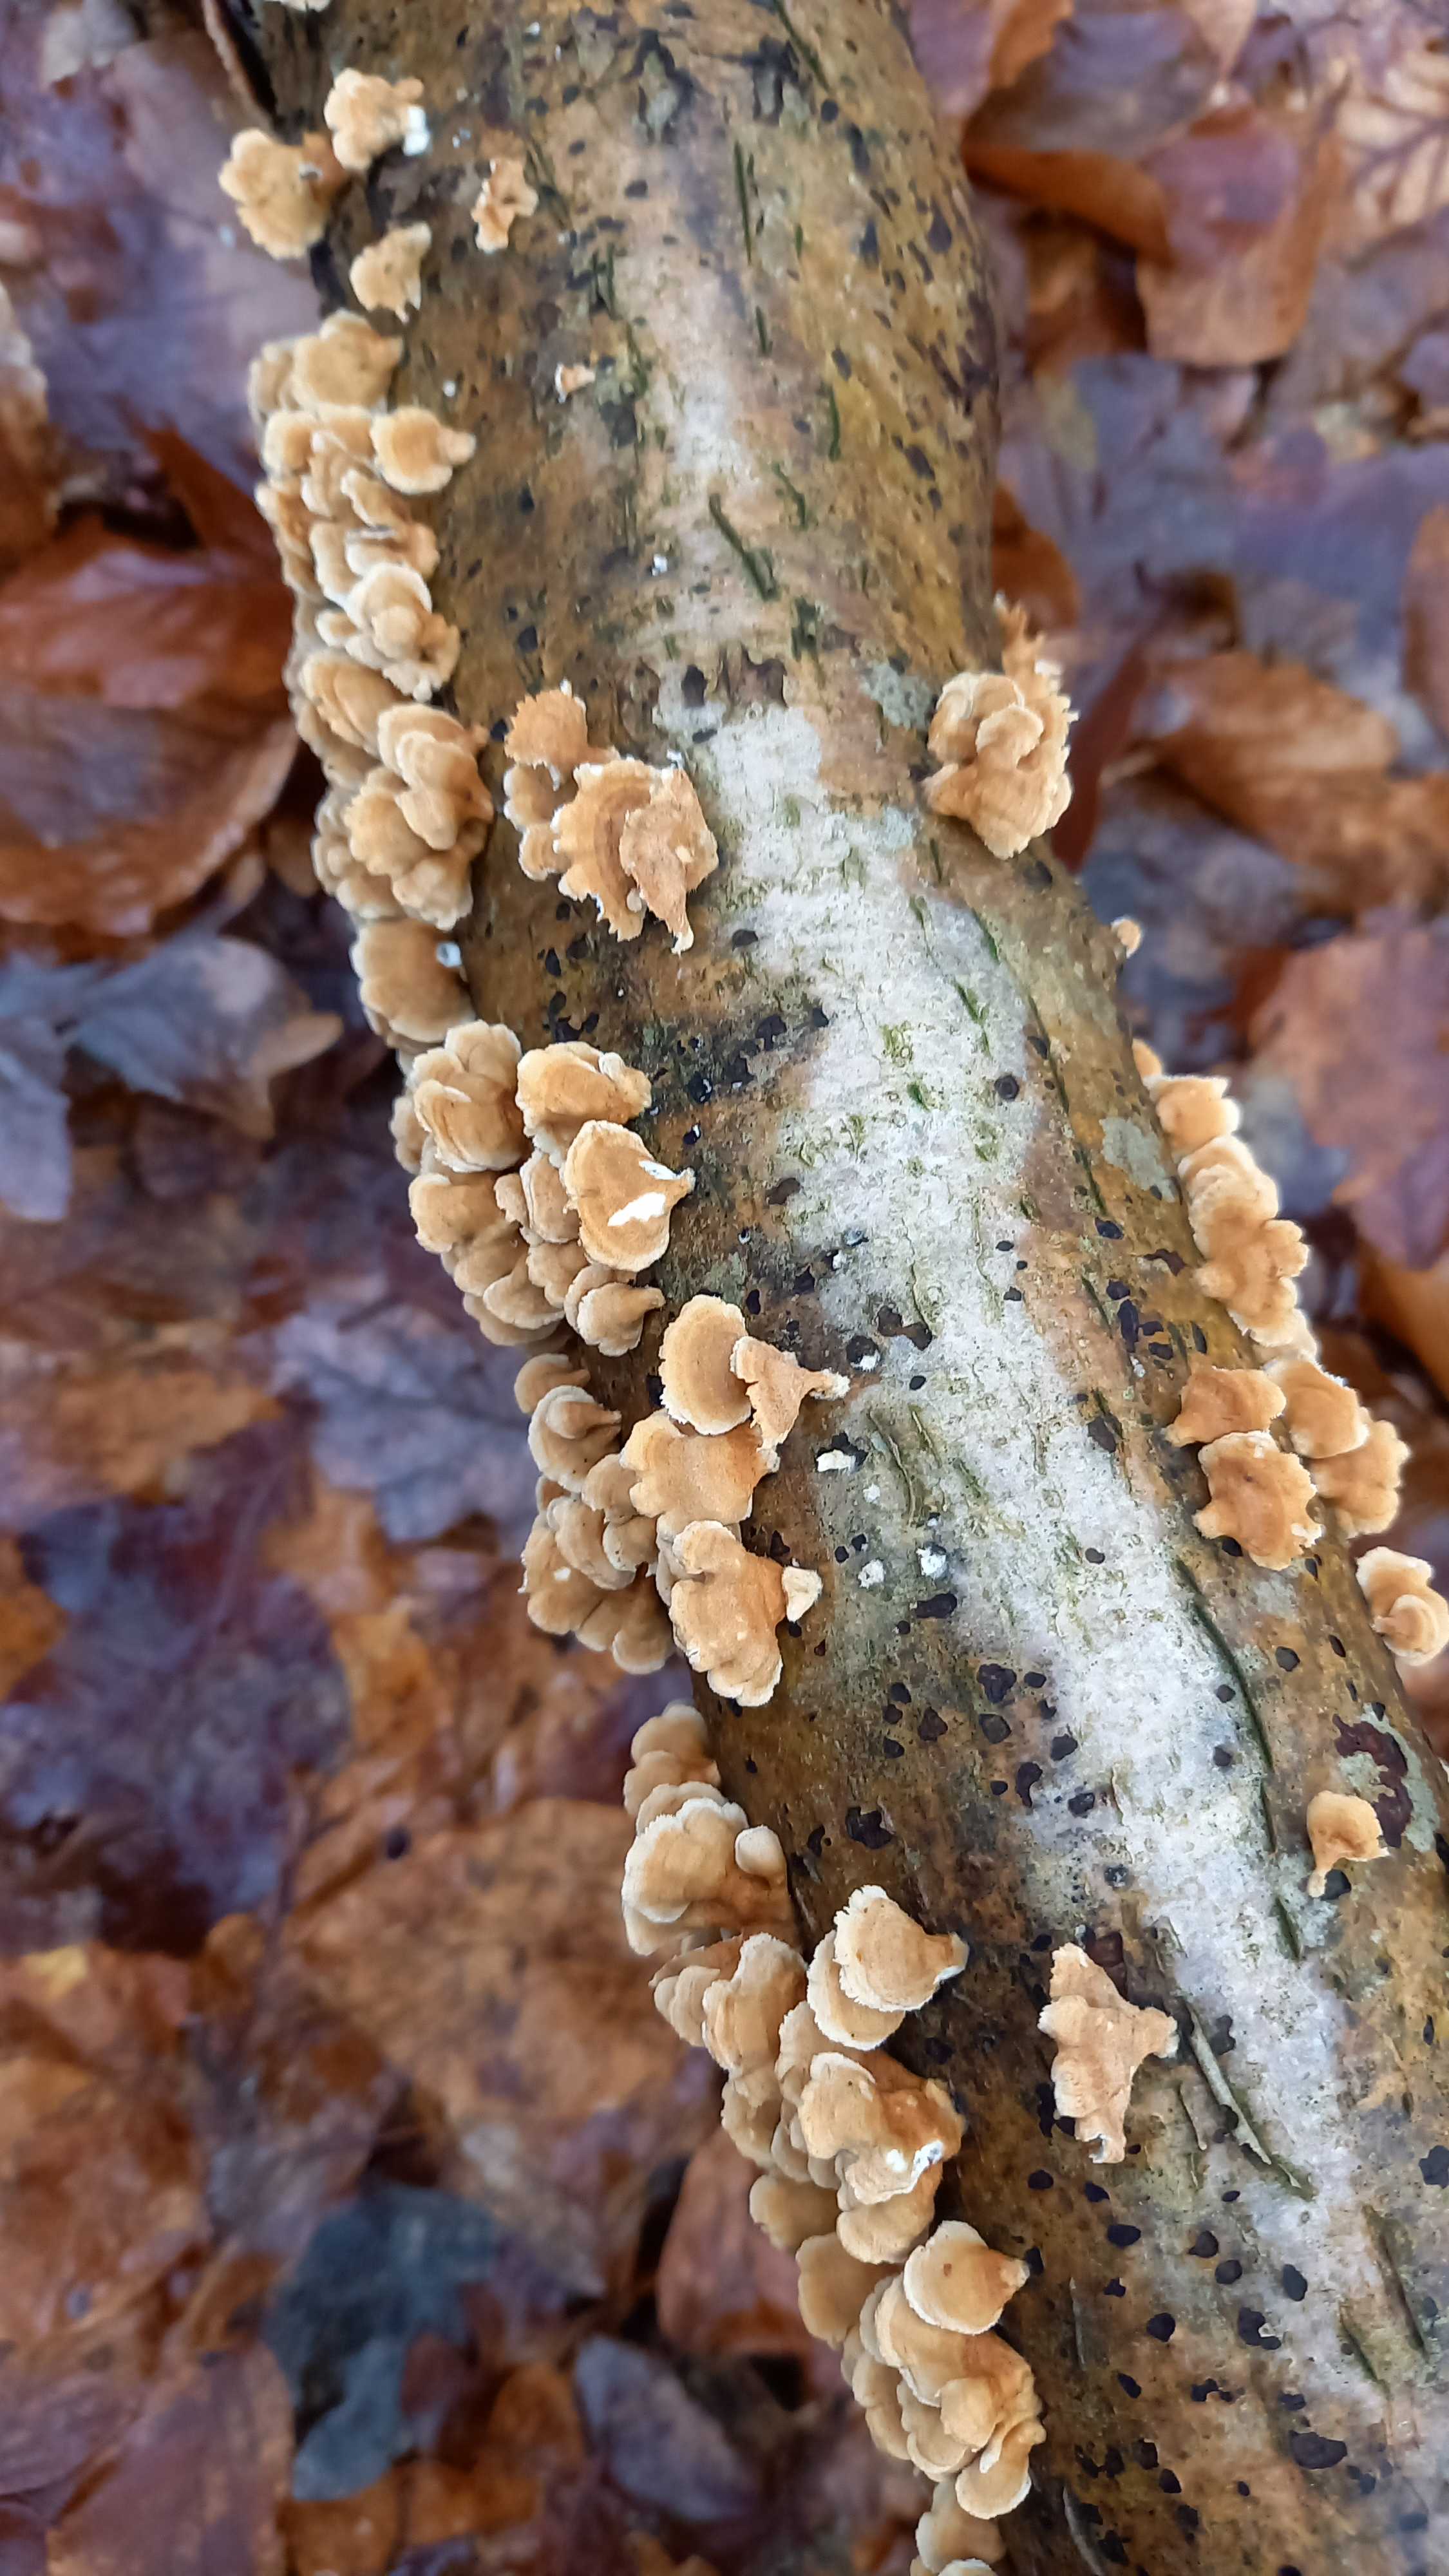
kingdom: Fungi
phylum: Basidiomycota
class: Agaricomycetes
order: Amylocorticiales
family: Amylocorticiaceae
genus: Plicaturopsis
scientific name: Plicaturopsis crispa
